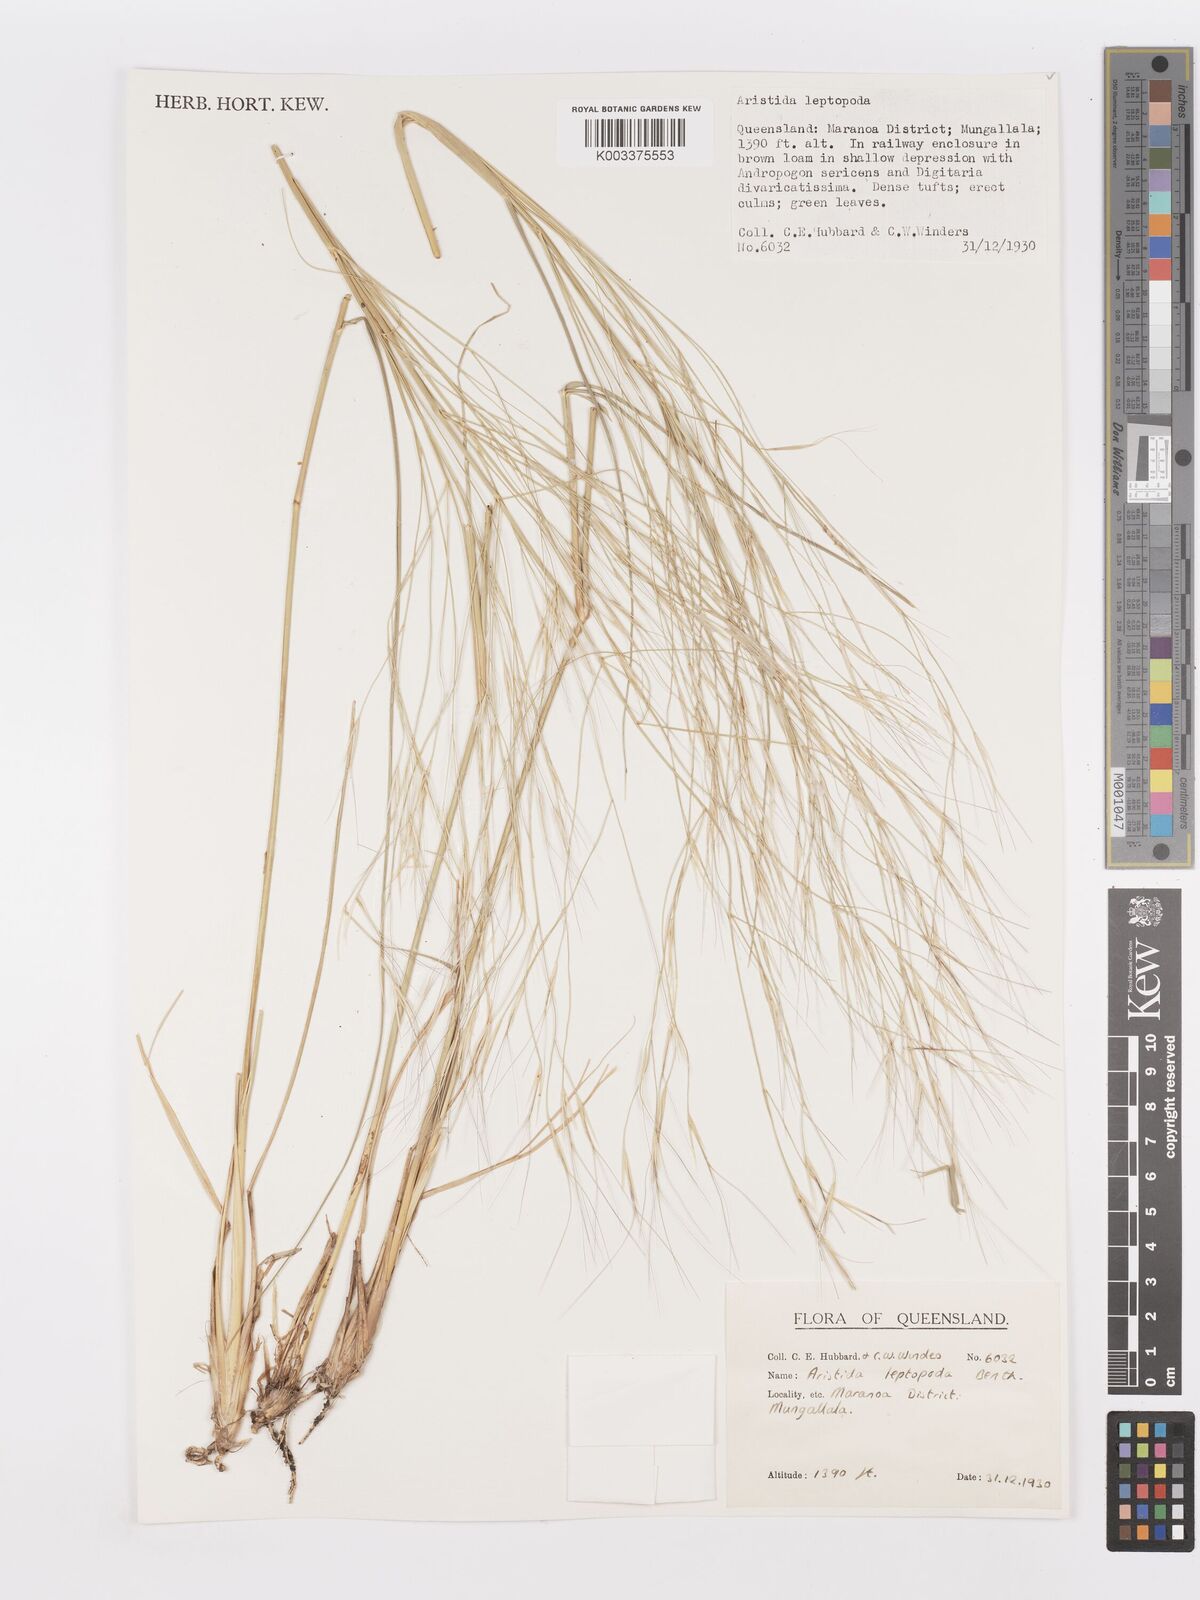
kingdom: Plantae
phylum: Tracheophyta
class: Liliopsida
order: Poales
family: Poaceae
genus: Aristida
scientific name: Aristida leptopoda
